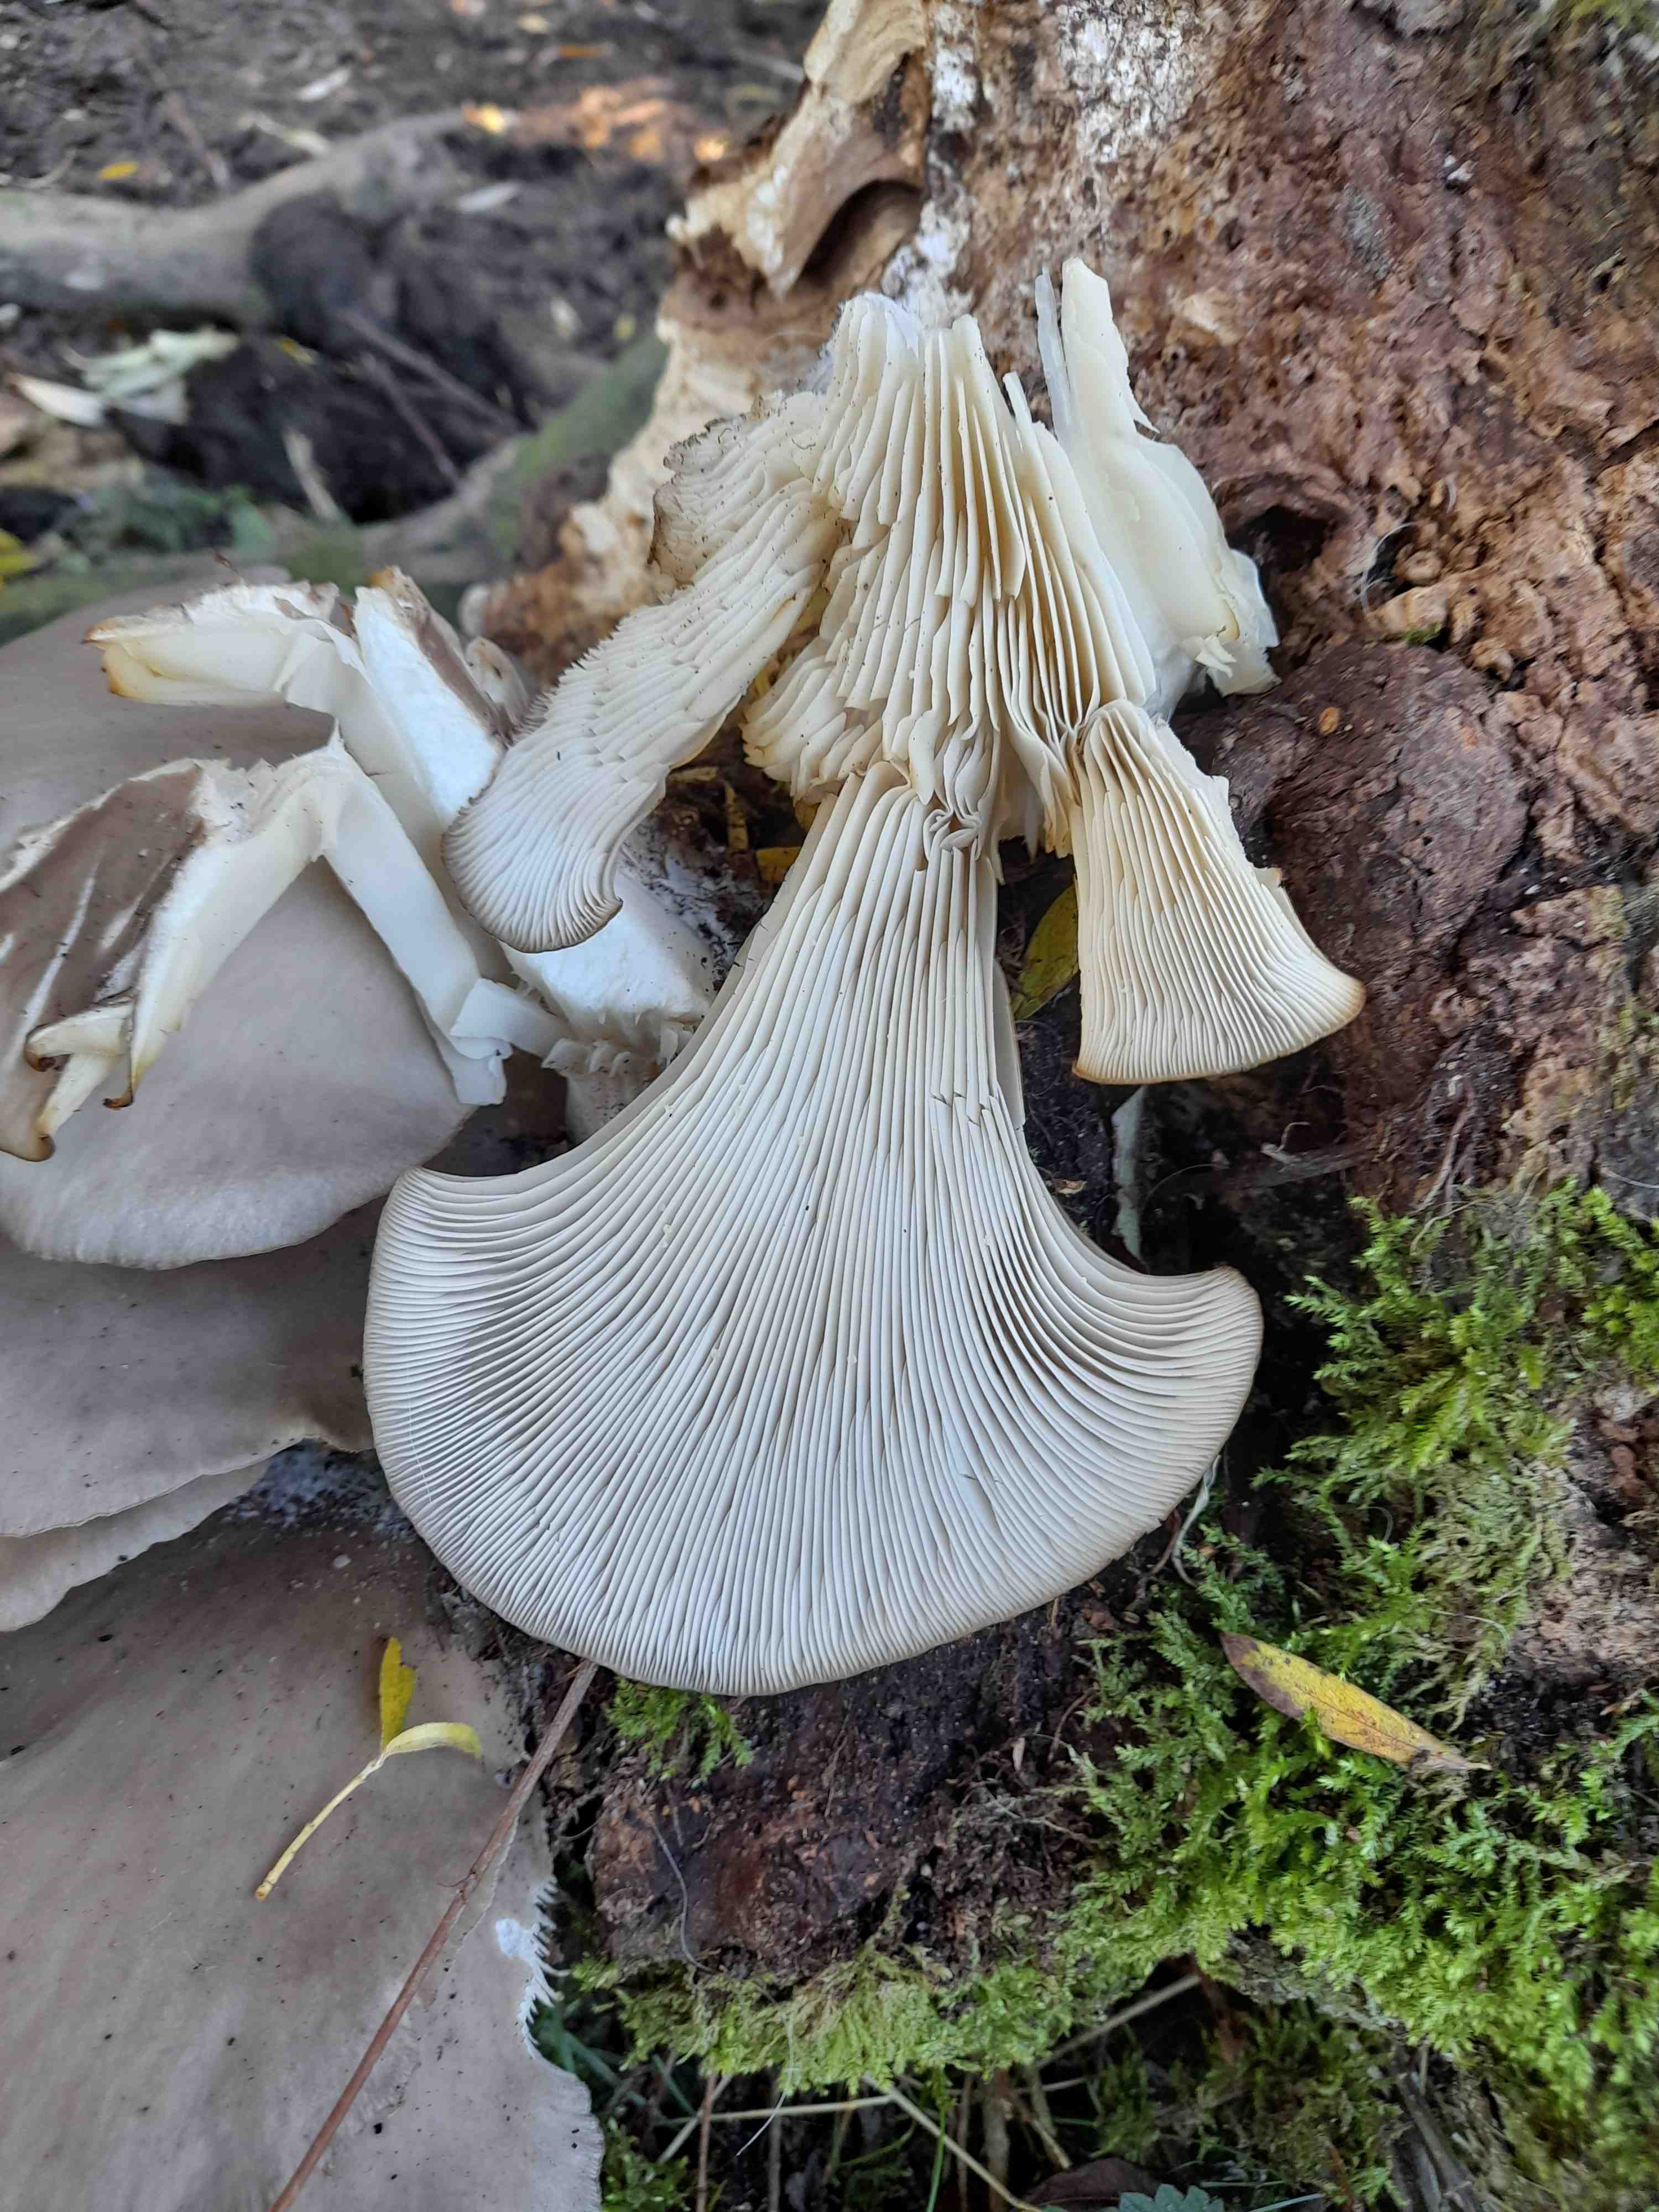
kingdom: Fungi
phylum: Basidiomycota
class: Agaricomycetes
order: Agaricales
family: Pleurotaceae
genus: Pleurotus
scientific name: Pleurotus ostreatus
